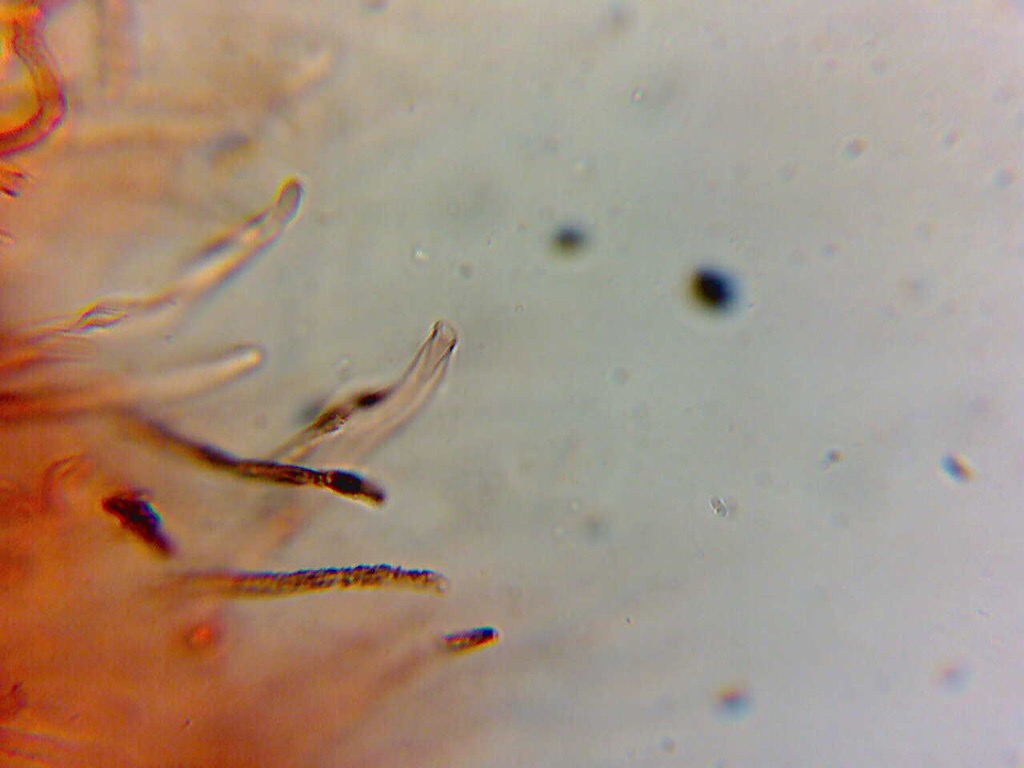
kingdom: Fungi
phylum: Basidiomycota
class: Agaricomycetes
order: Agaricales
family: Pleurotaceae
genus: Hohenbuehelia
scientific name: Hohenbuehelia fluxilis
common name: pile-filthat
